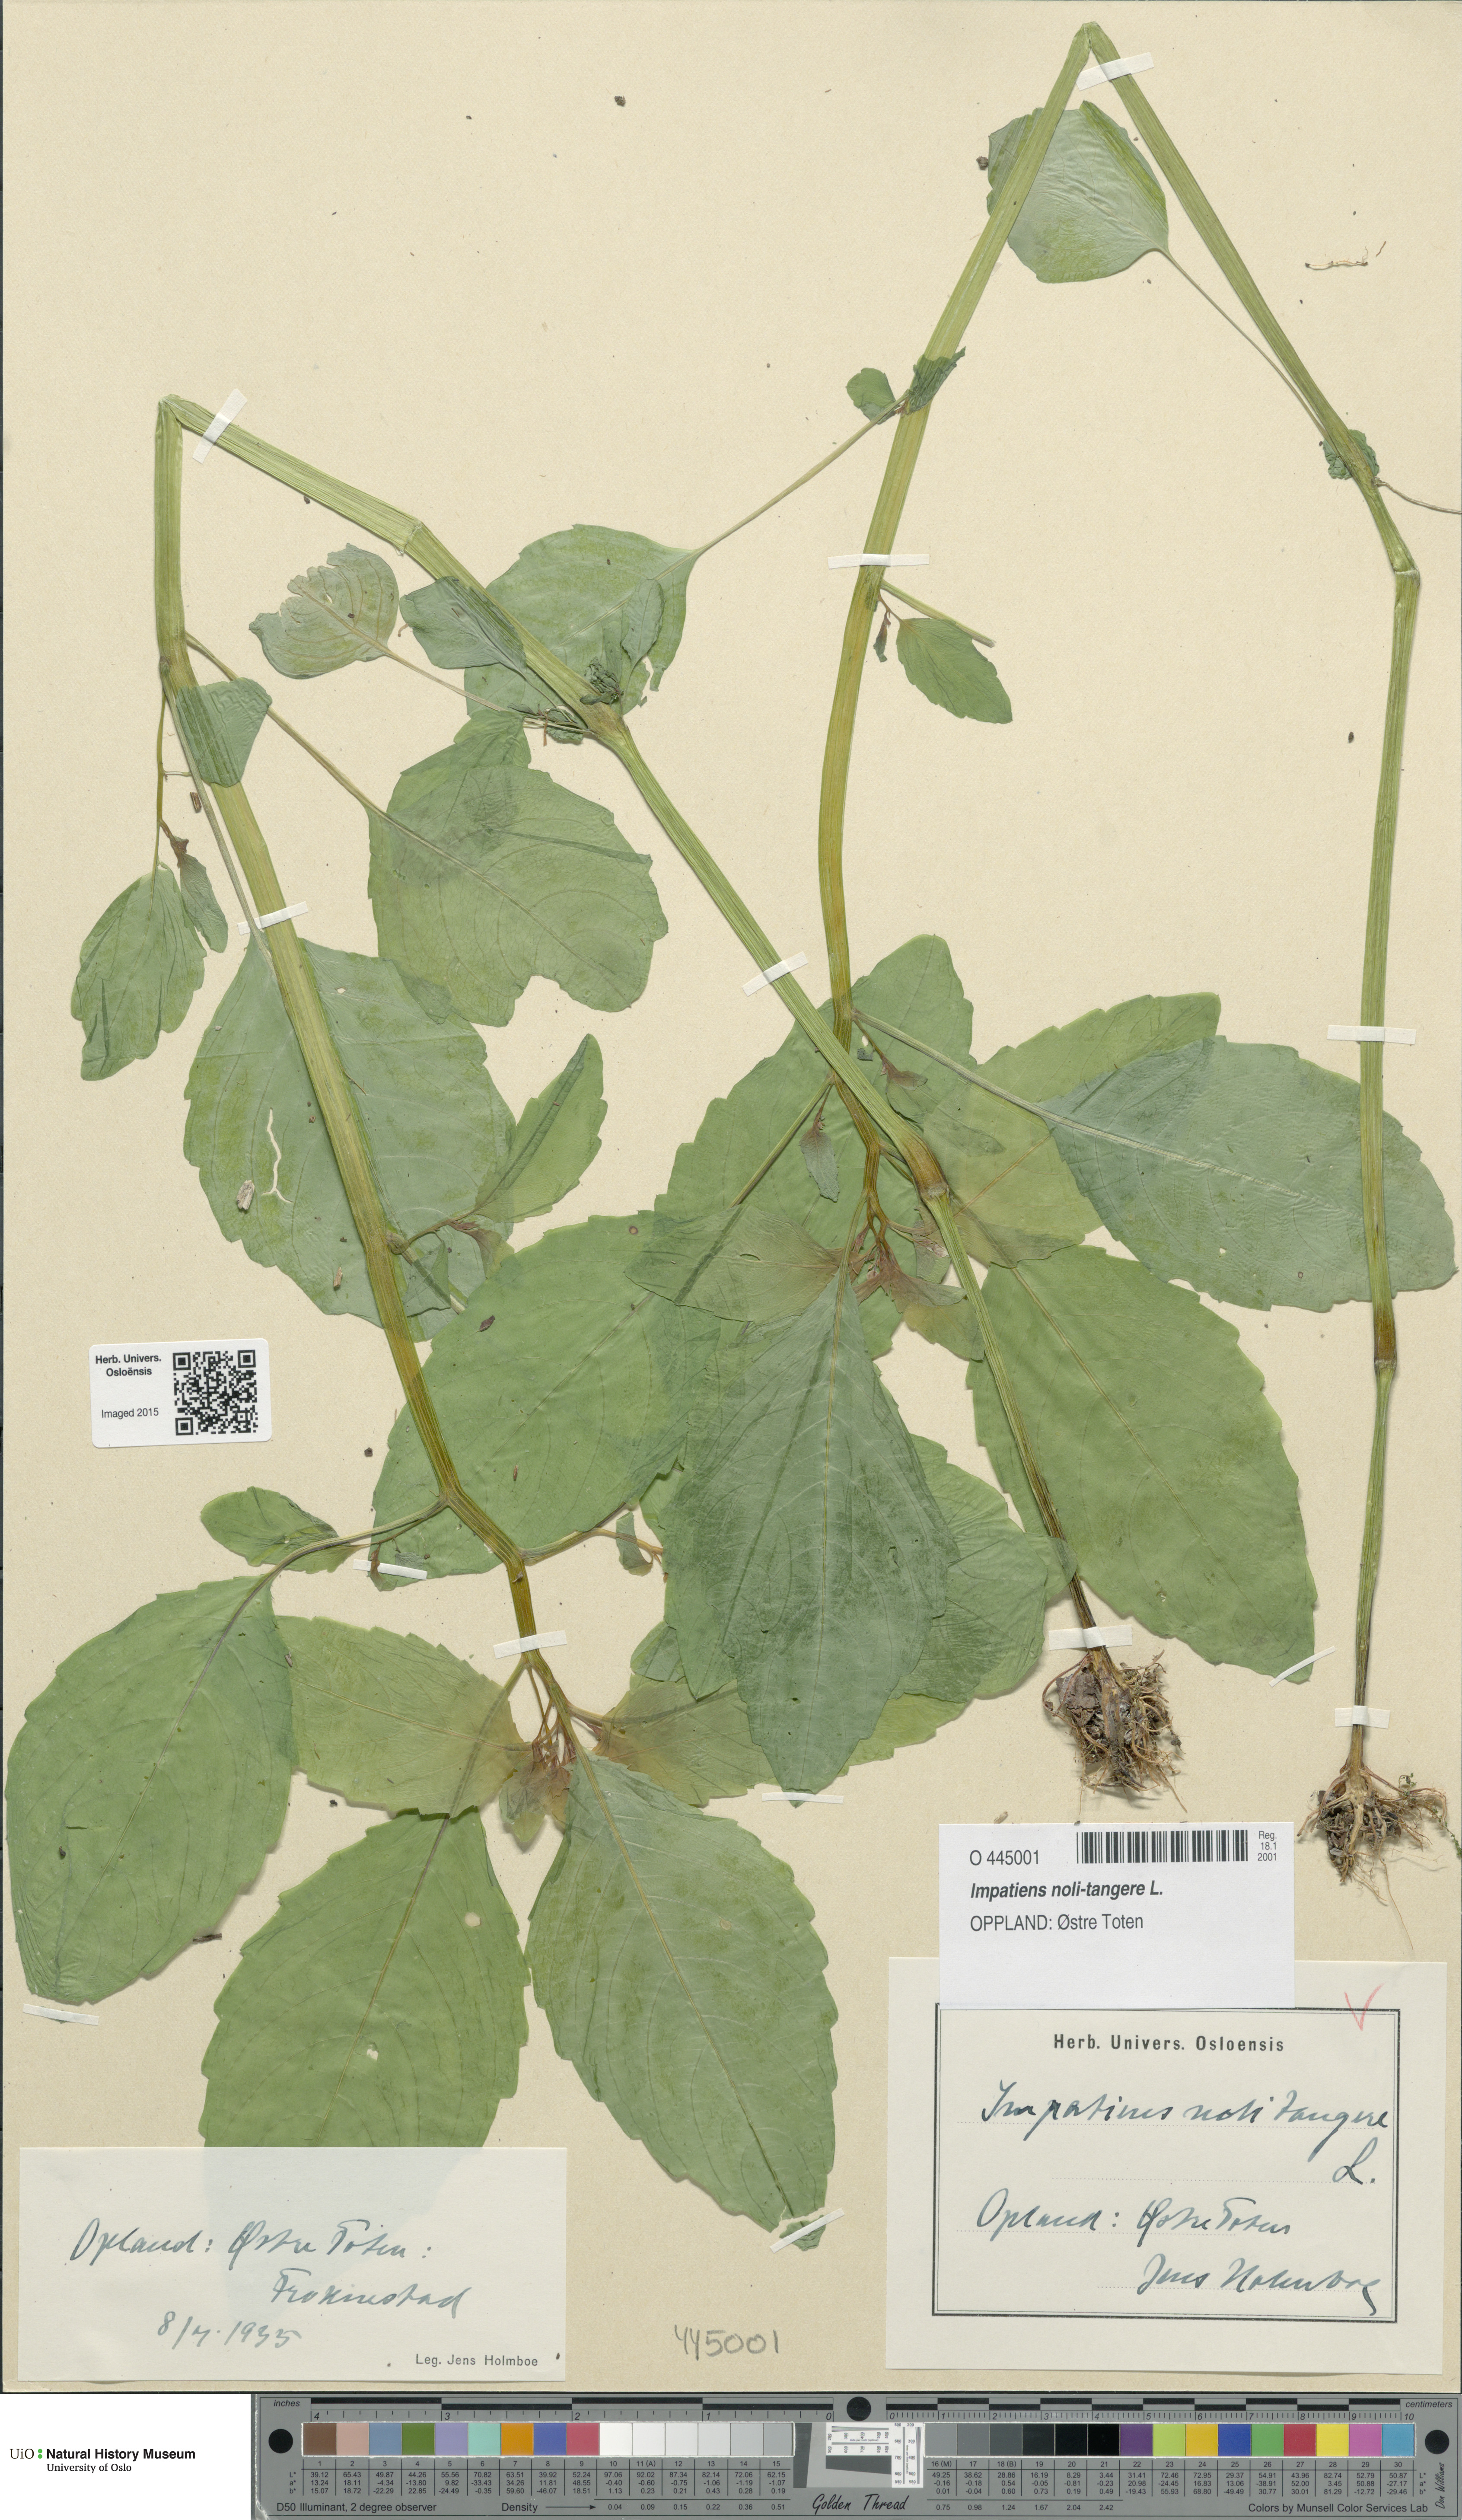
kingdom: Plantae
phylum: Tracheophyta
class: Magnoliopsida
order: Ericales
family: Balsaminaceae
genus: Impatiens
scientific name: Impatiens noli-tangere
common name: Touch-me-not balsam
